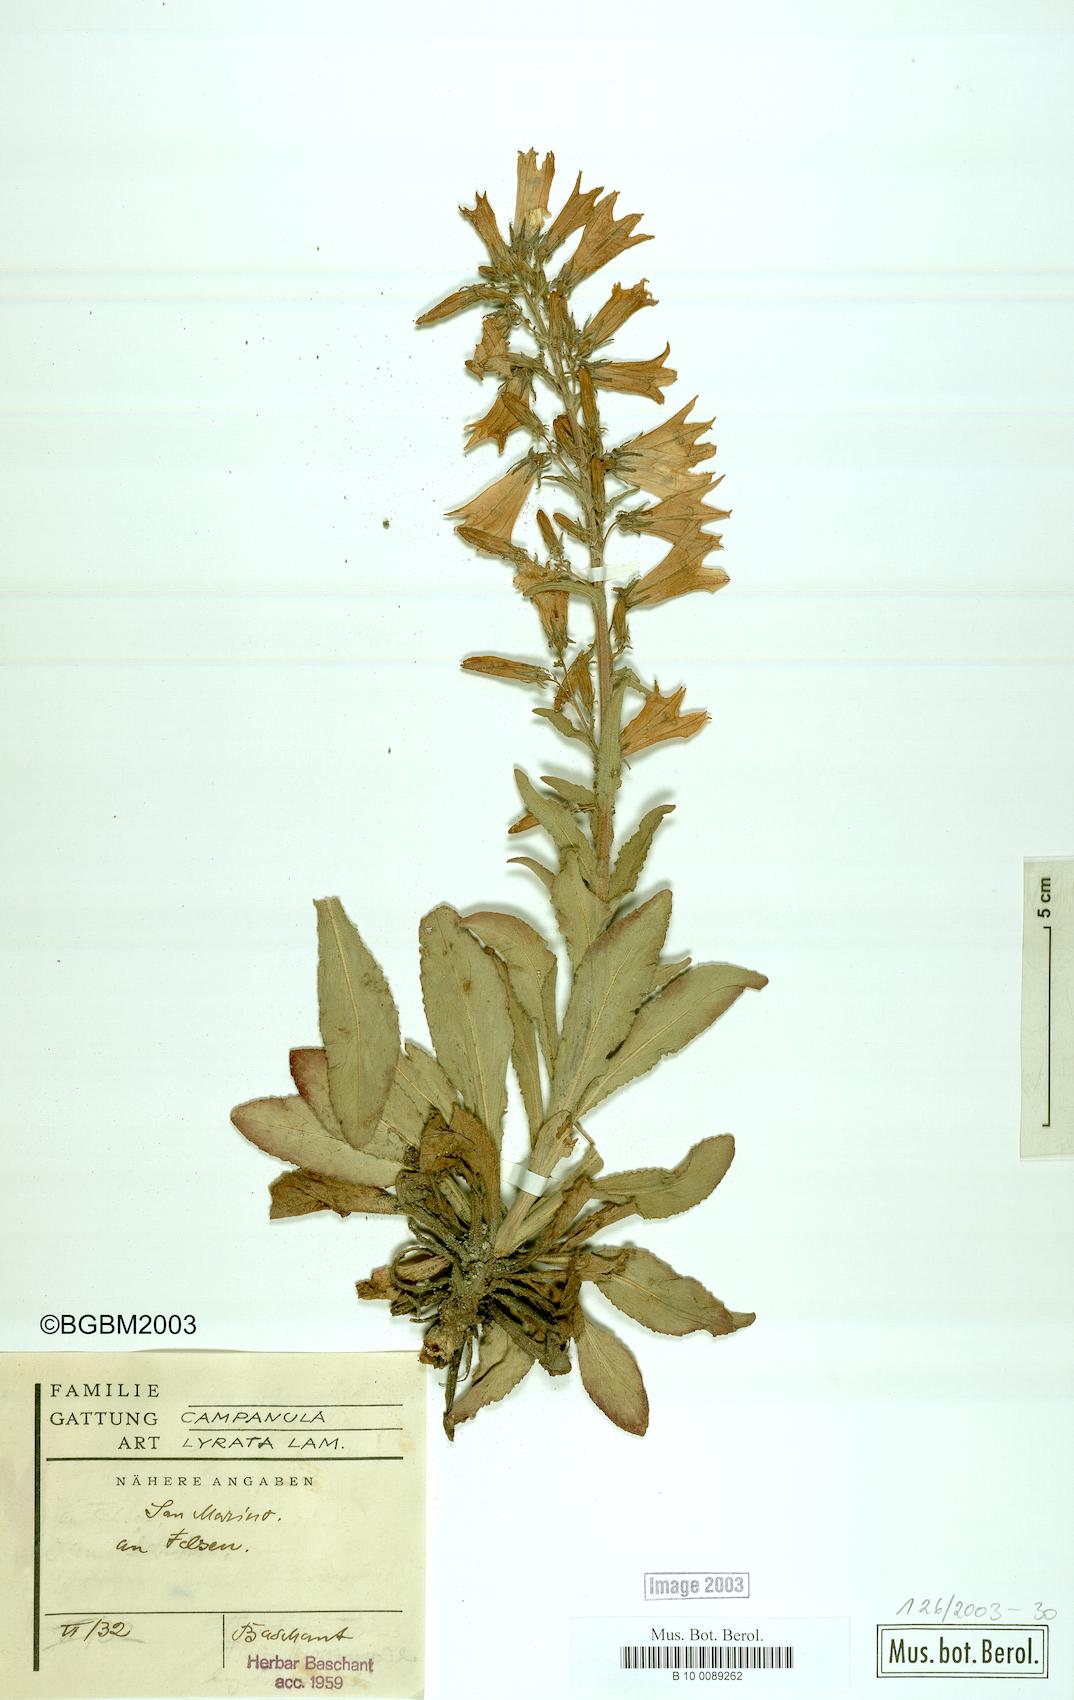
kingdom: Plantae
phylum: Tracheophyta
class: Magnoliopsida
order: Asterales
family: Campanulaceae
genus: Campanula
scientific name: Campanula lyrata
